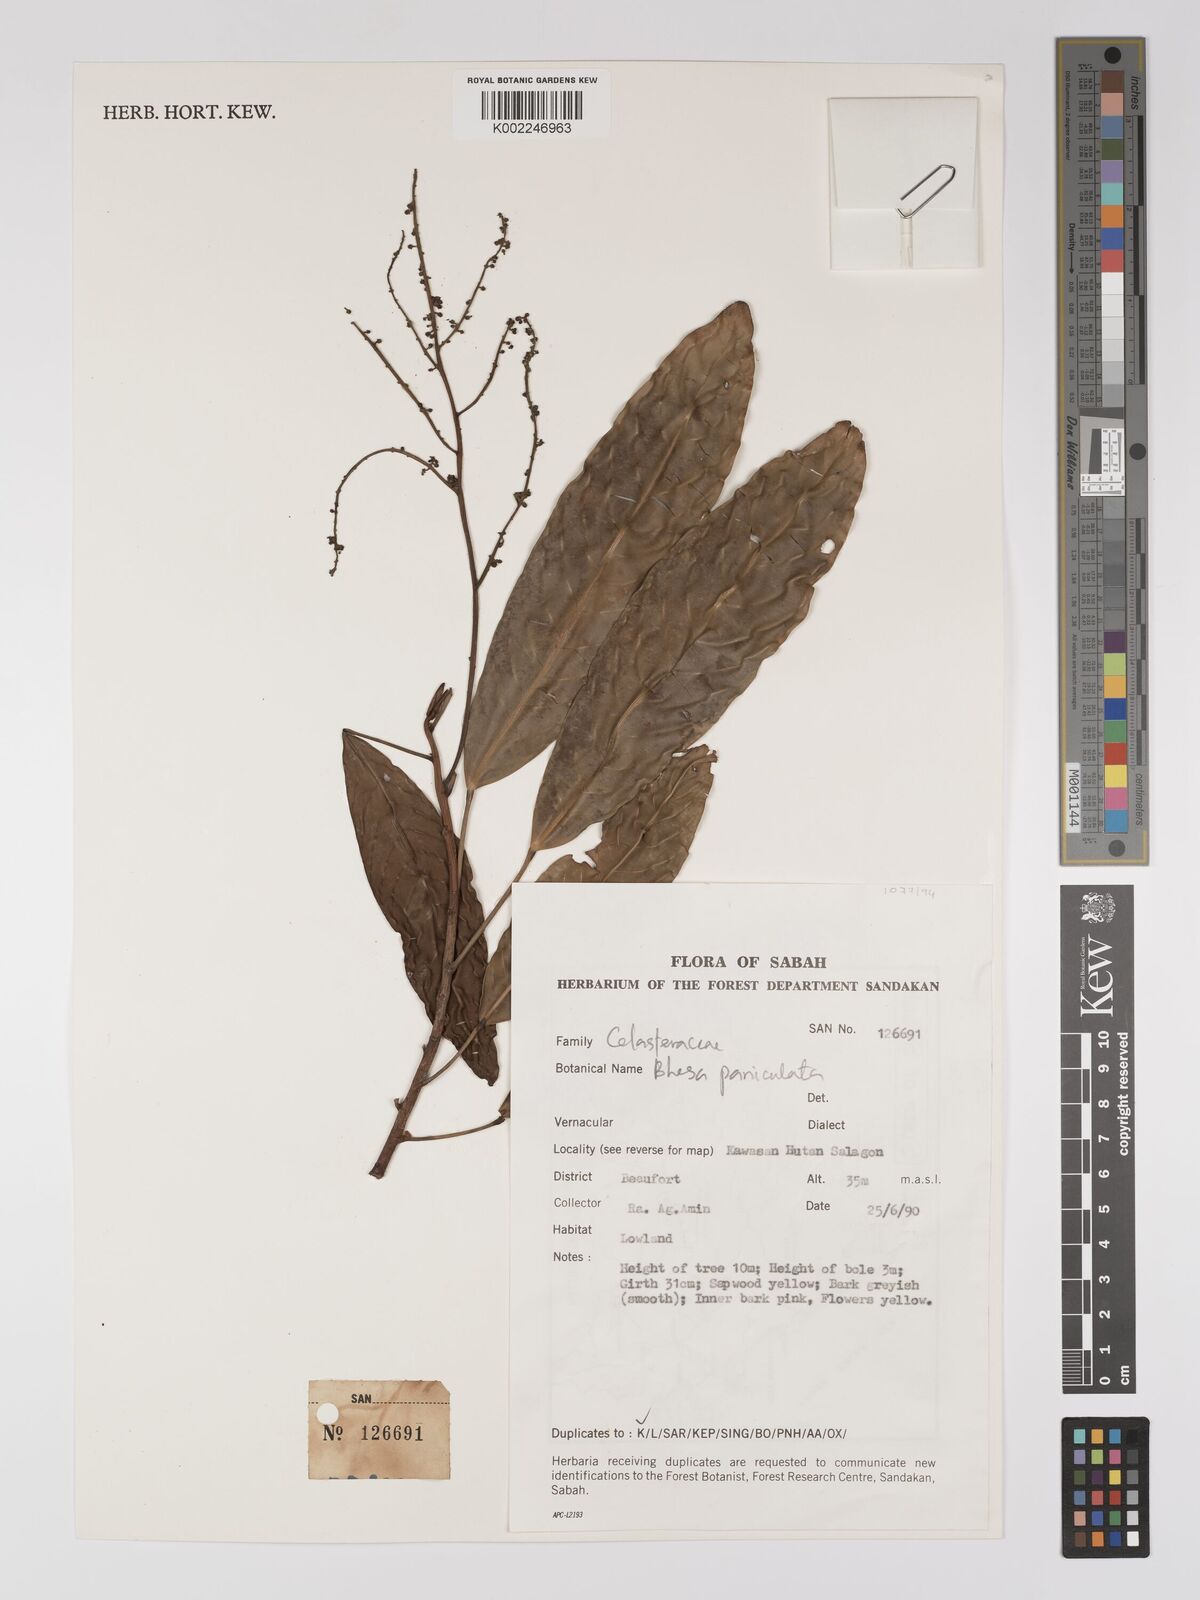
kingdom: Plantae
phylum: Tracheophyta
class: Magnoliopsida
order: Malpighiales
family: Centroplacaceae
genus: Bhesa
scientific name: Bhesa paniculata
